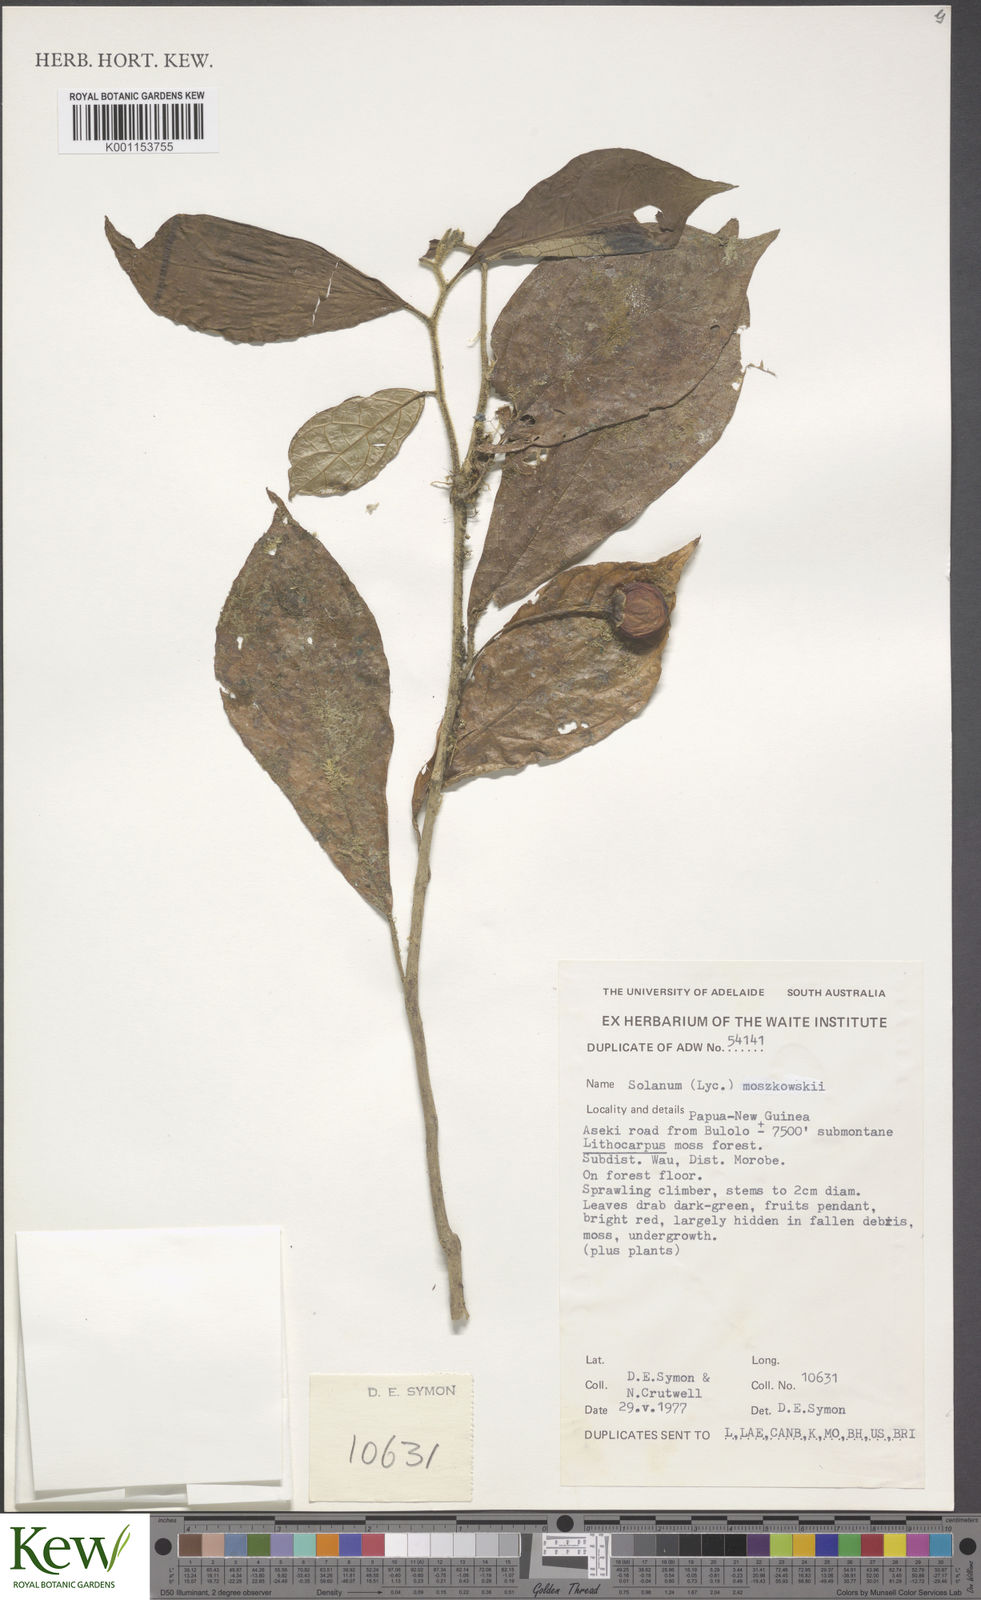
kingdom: Plantae
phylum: Tracheophyta
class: Magnoliopsida
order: Solanales
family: Solanaceae
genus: Lycianthes
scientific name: Lycianthes moszkowskii
